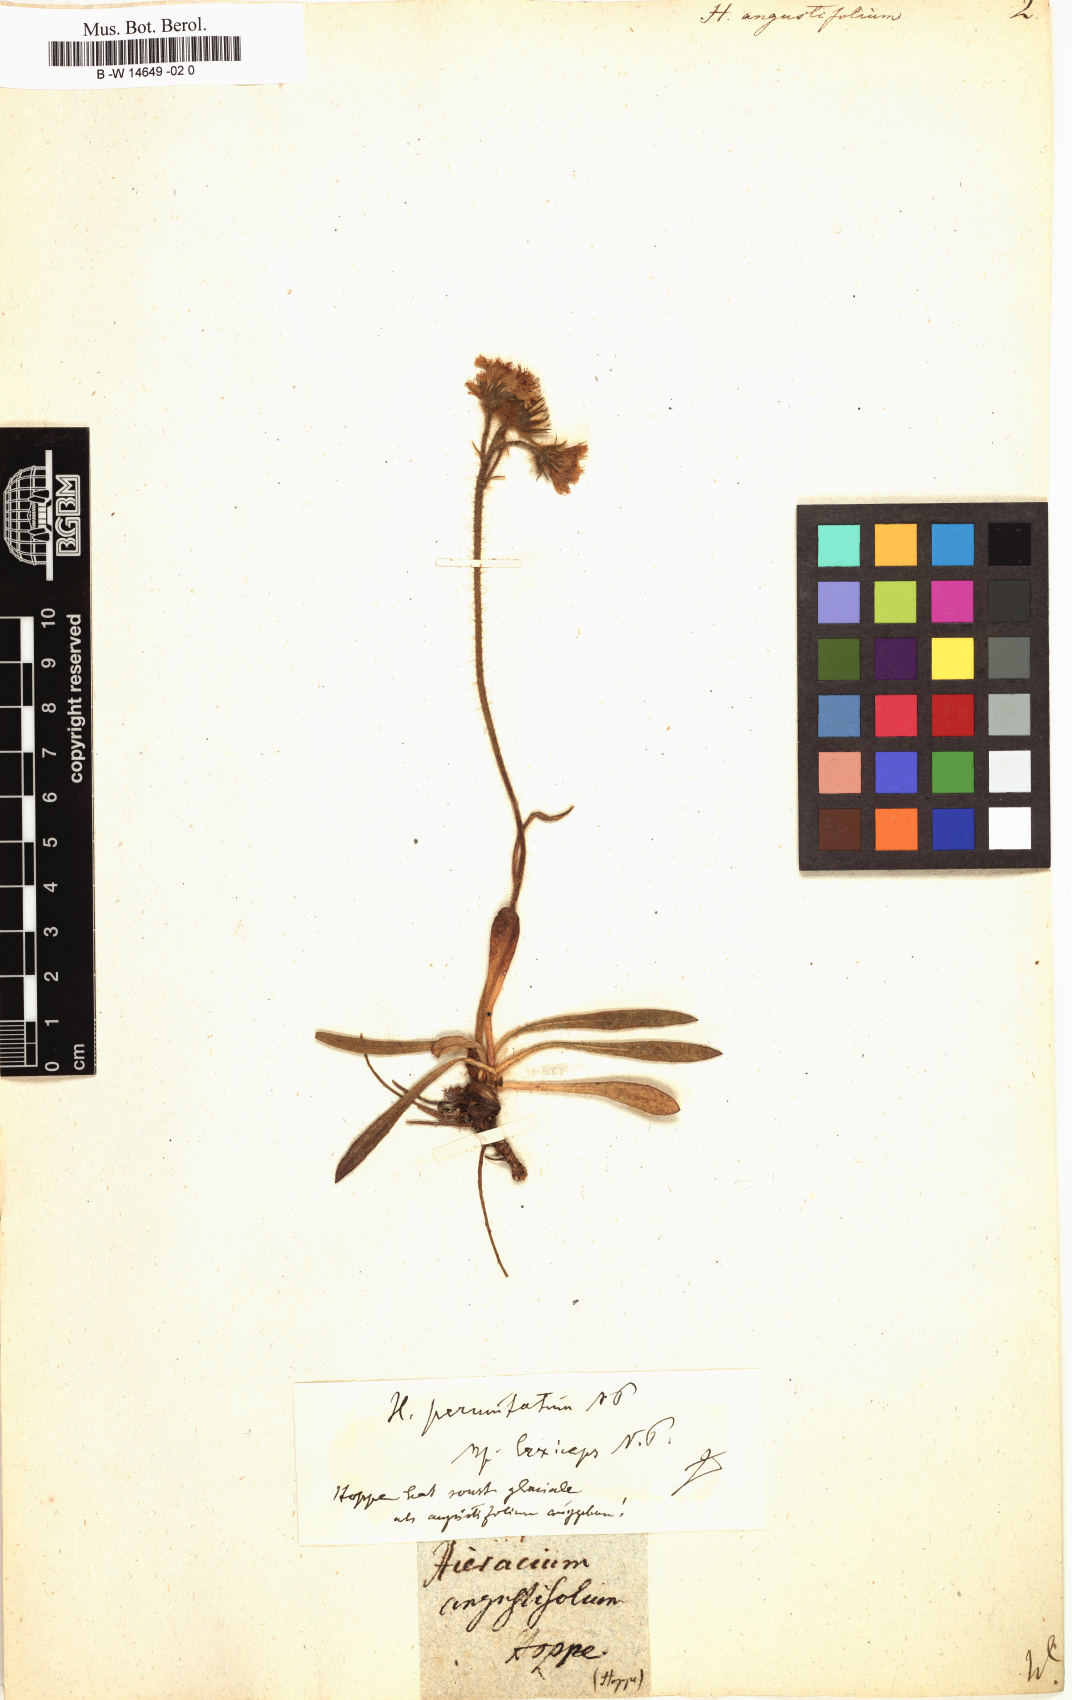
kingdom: Plantae
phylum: Tracheophyta
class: Magnoliopsida
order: Asterales
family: Asteraceae
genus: Hieracium
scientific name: Hieracium angustifolium
